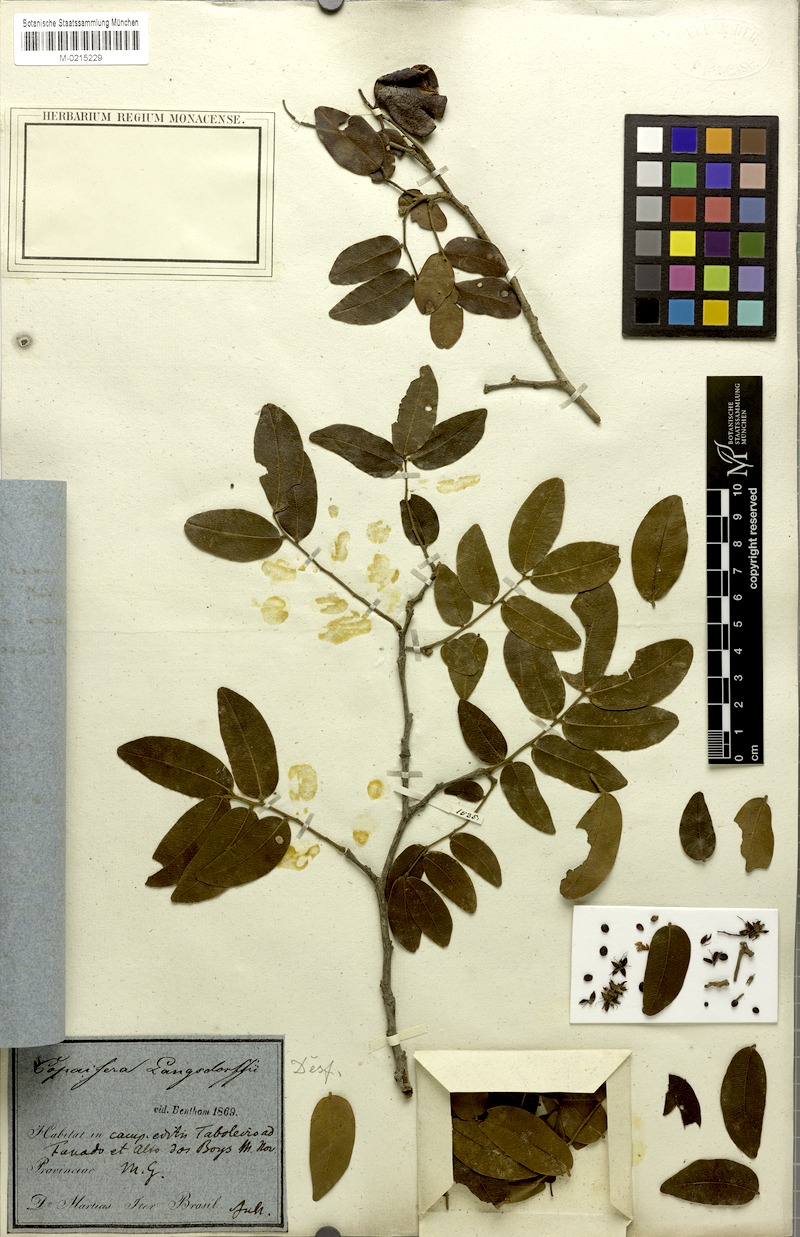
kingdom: Plantae
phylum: Tracheophyta
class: Magnoliopsida
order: Fabales
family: Fabaceae
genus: Copaifera
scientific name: Copaifera langsdorffii
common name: Brazilian diesel tree
